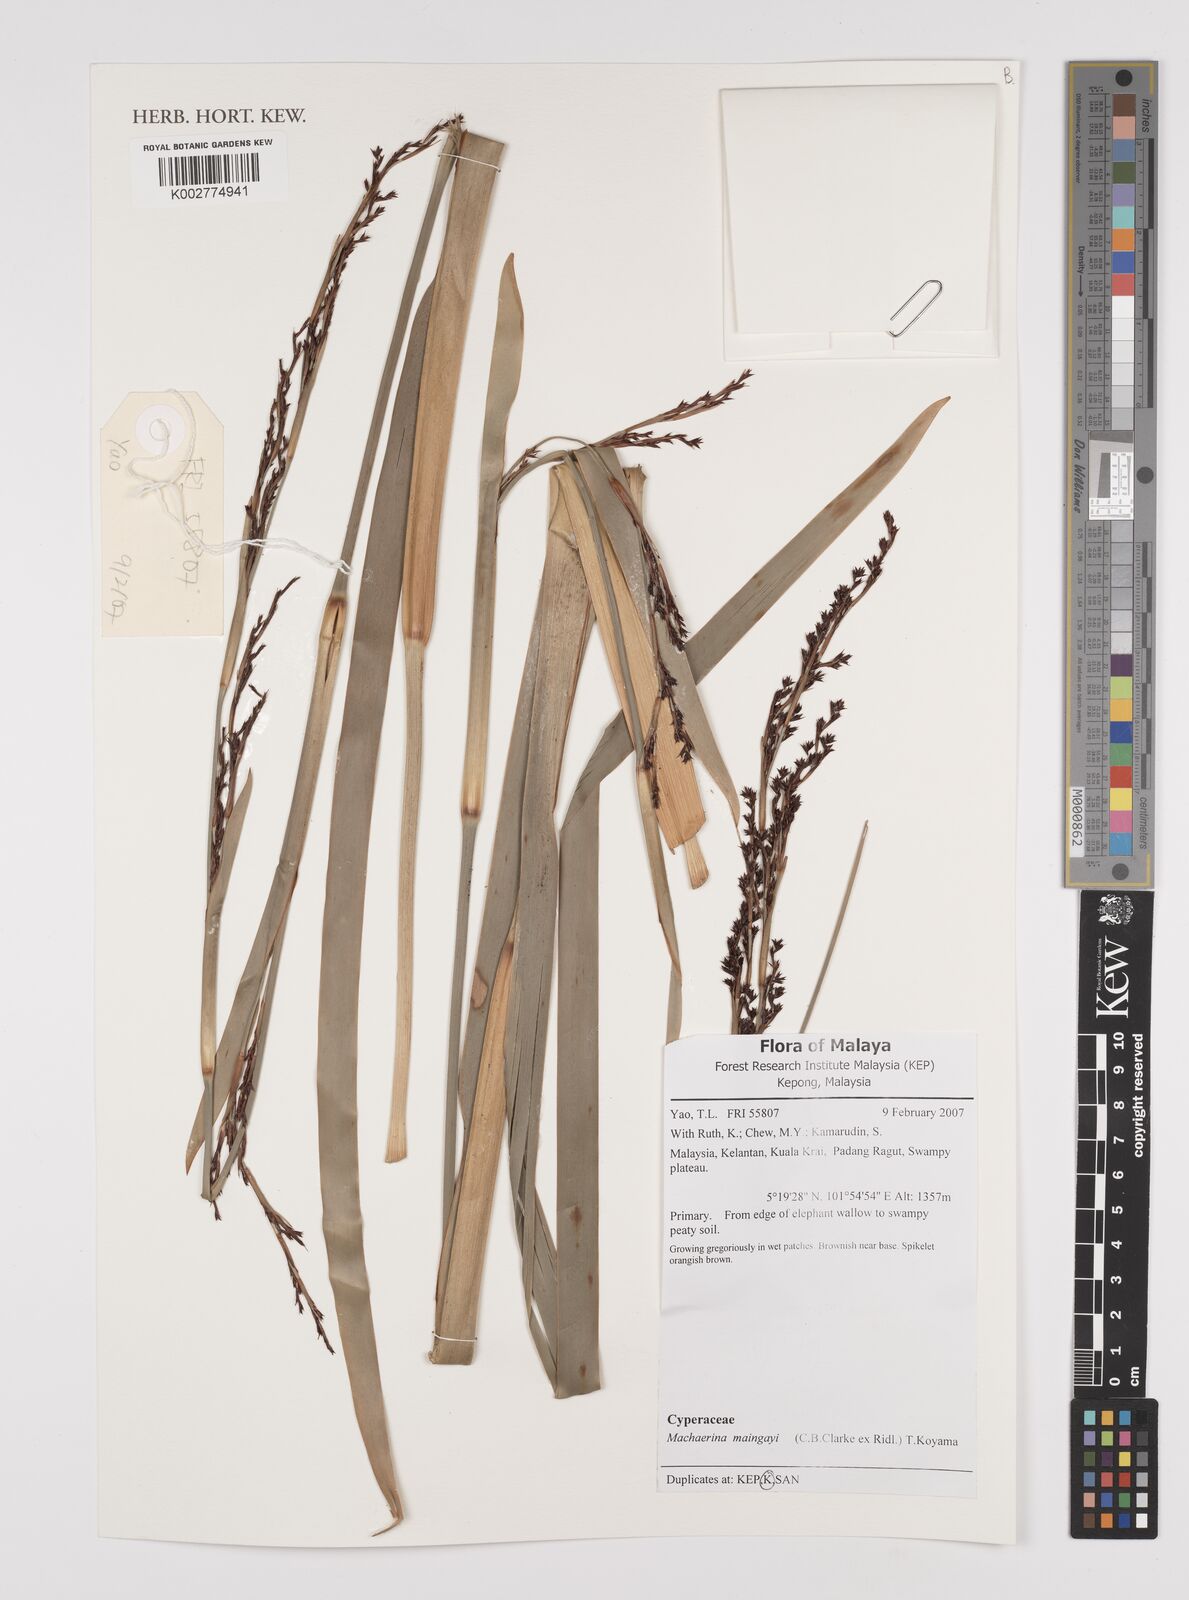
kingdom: Plantae
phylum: Tracheophyta
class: Liliopsida
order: Poales
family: Cyperaceae
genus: Machaerina
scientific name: Machaerina maingayi
